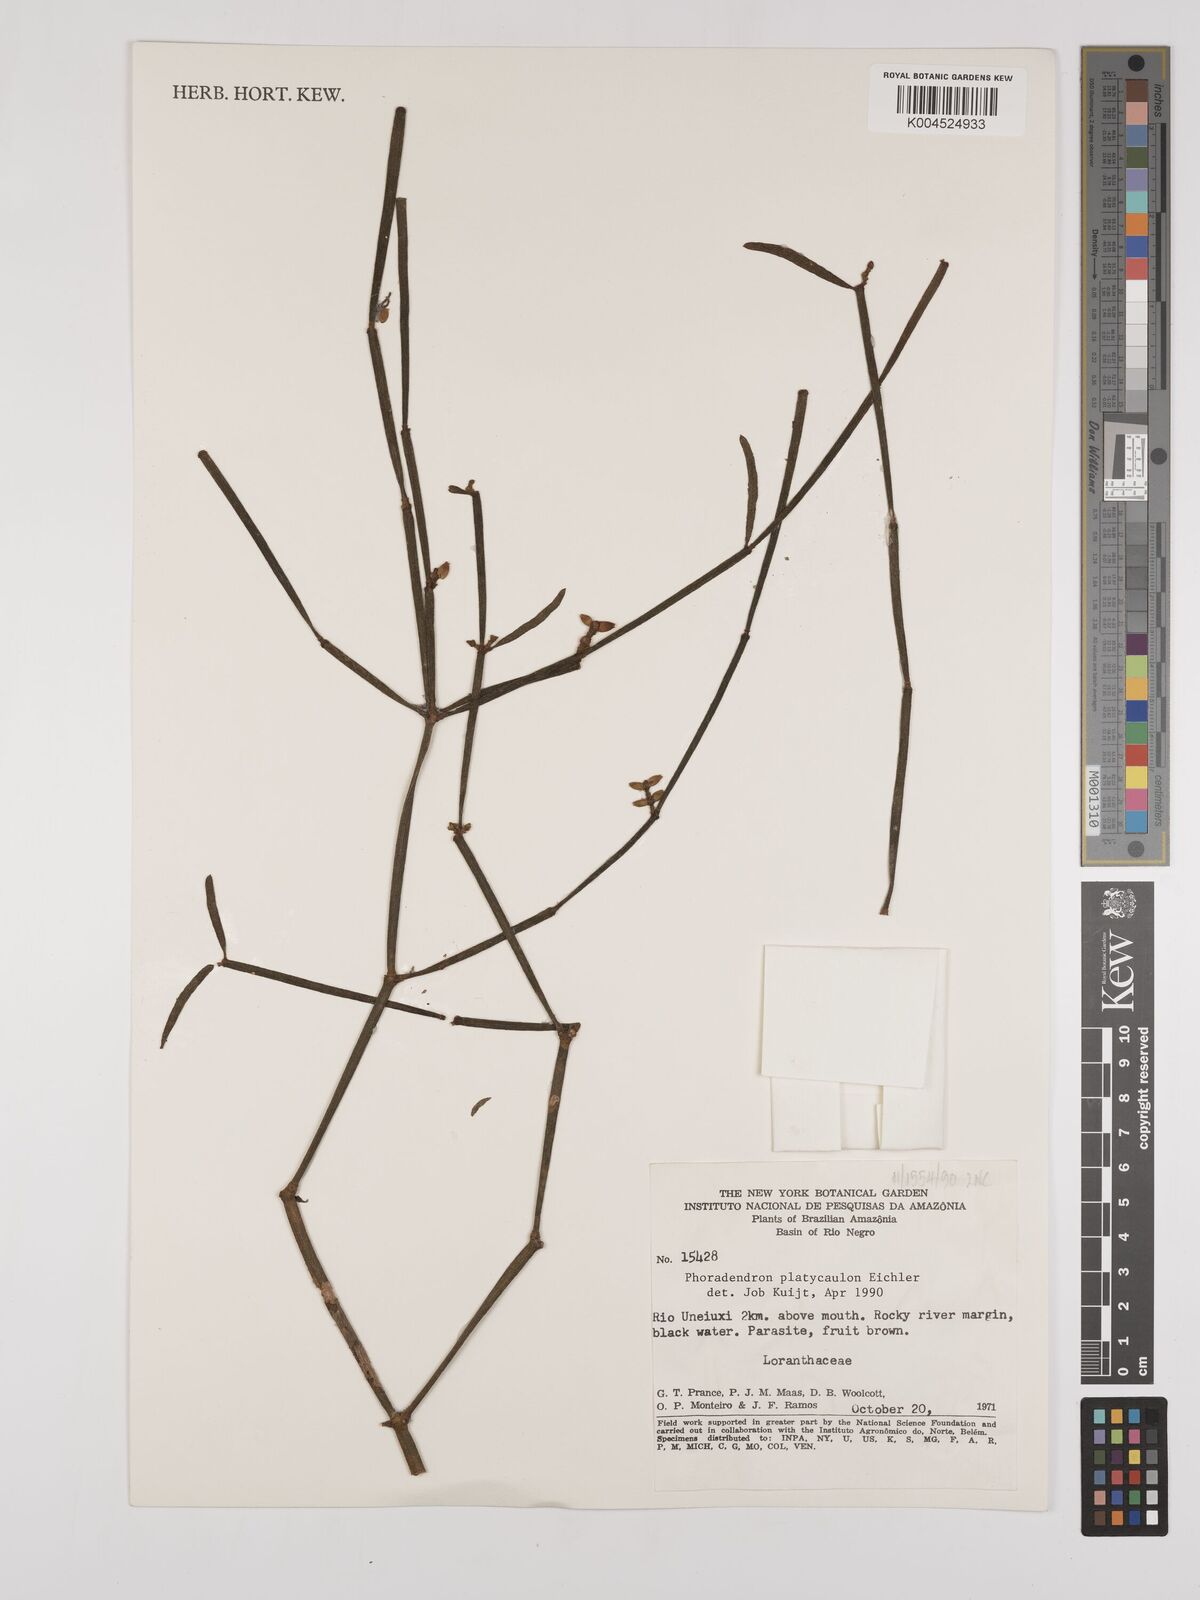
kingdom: Plantae
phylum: Tracheophyta
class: Magnoliopsida
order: Santalales
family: Viscaceae
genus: Phoradendron
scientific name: Phoradendron planiphyllum
